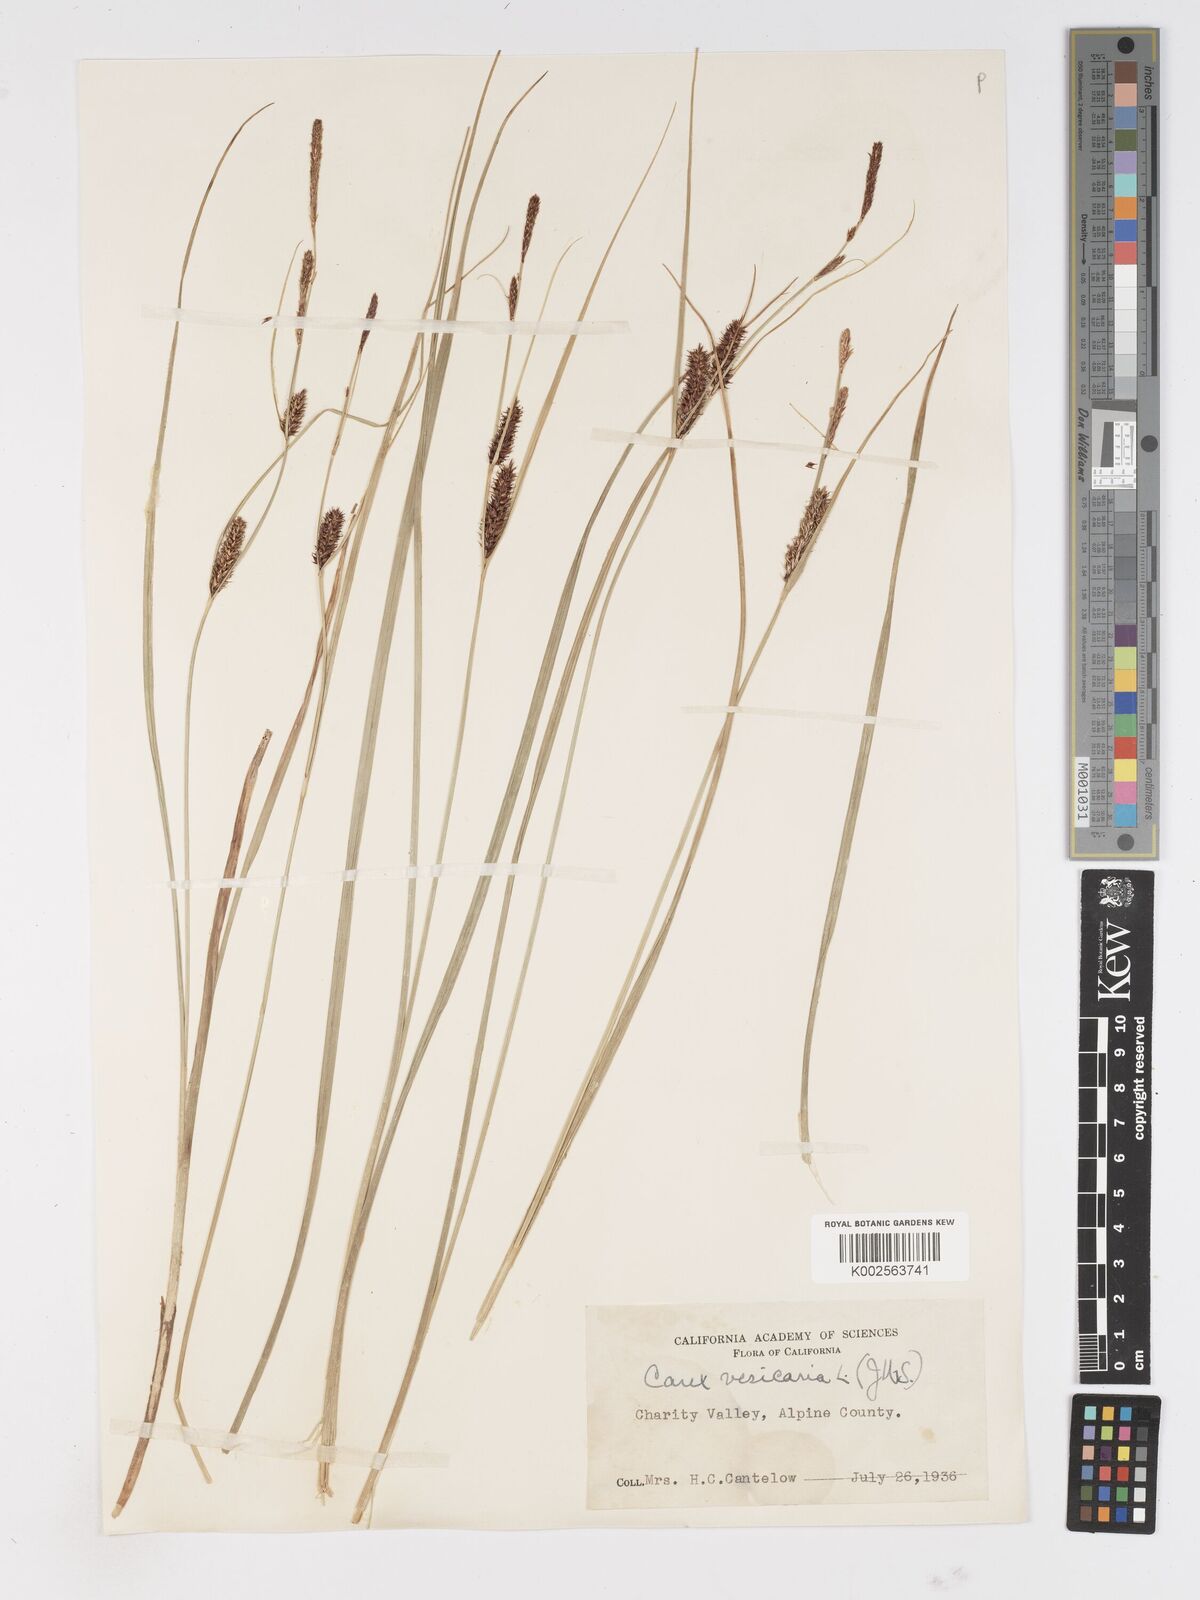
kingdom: Plantae
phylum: Tracheophyta
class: Liliopsida
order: Poales
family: Cyperaceae
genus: Carex
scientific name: Carex vesicaria
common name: Bladder-sedge
